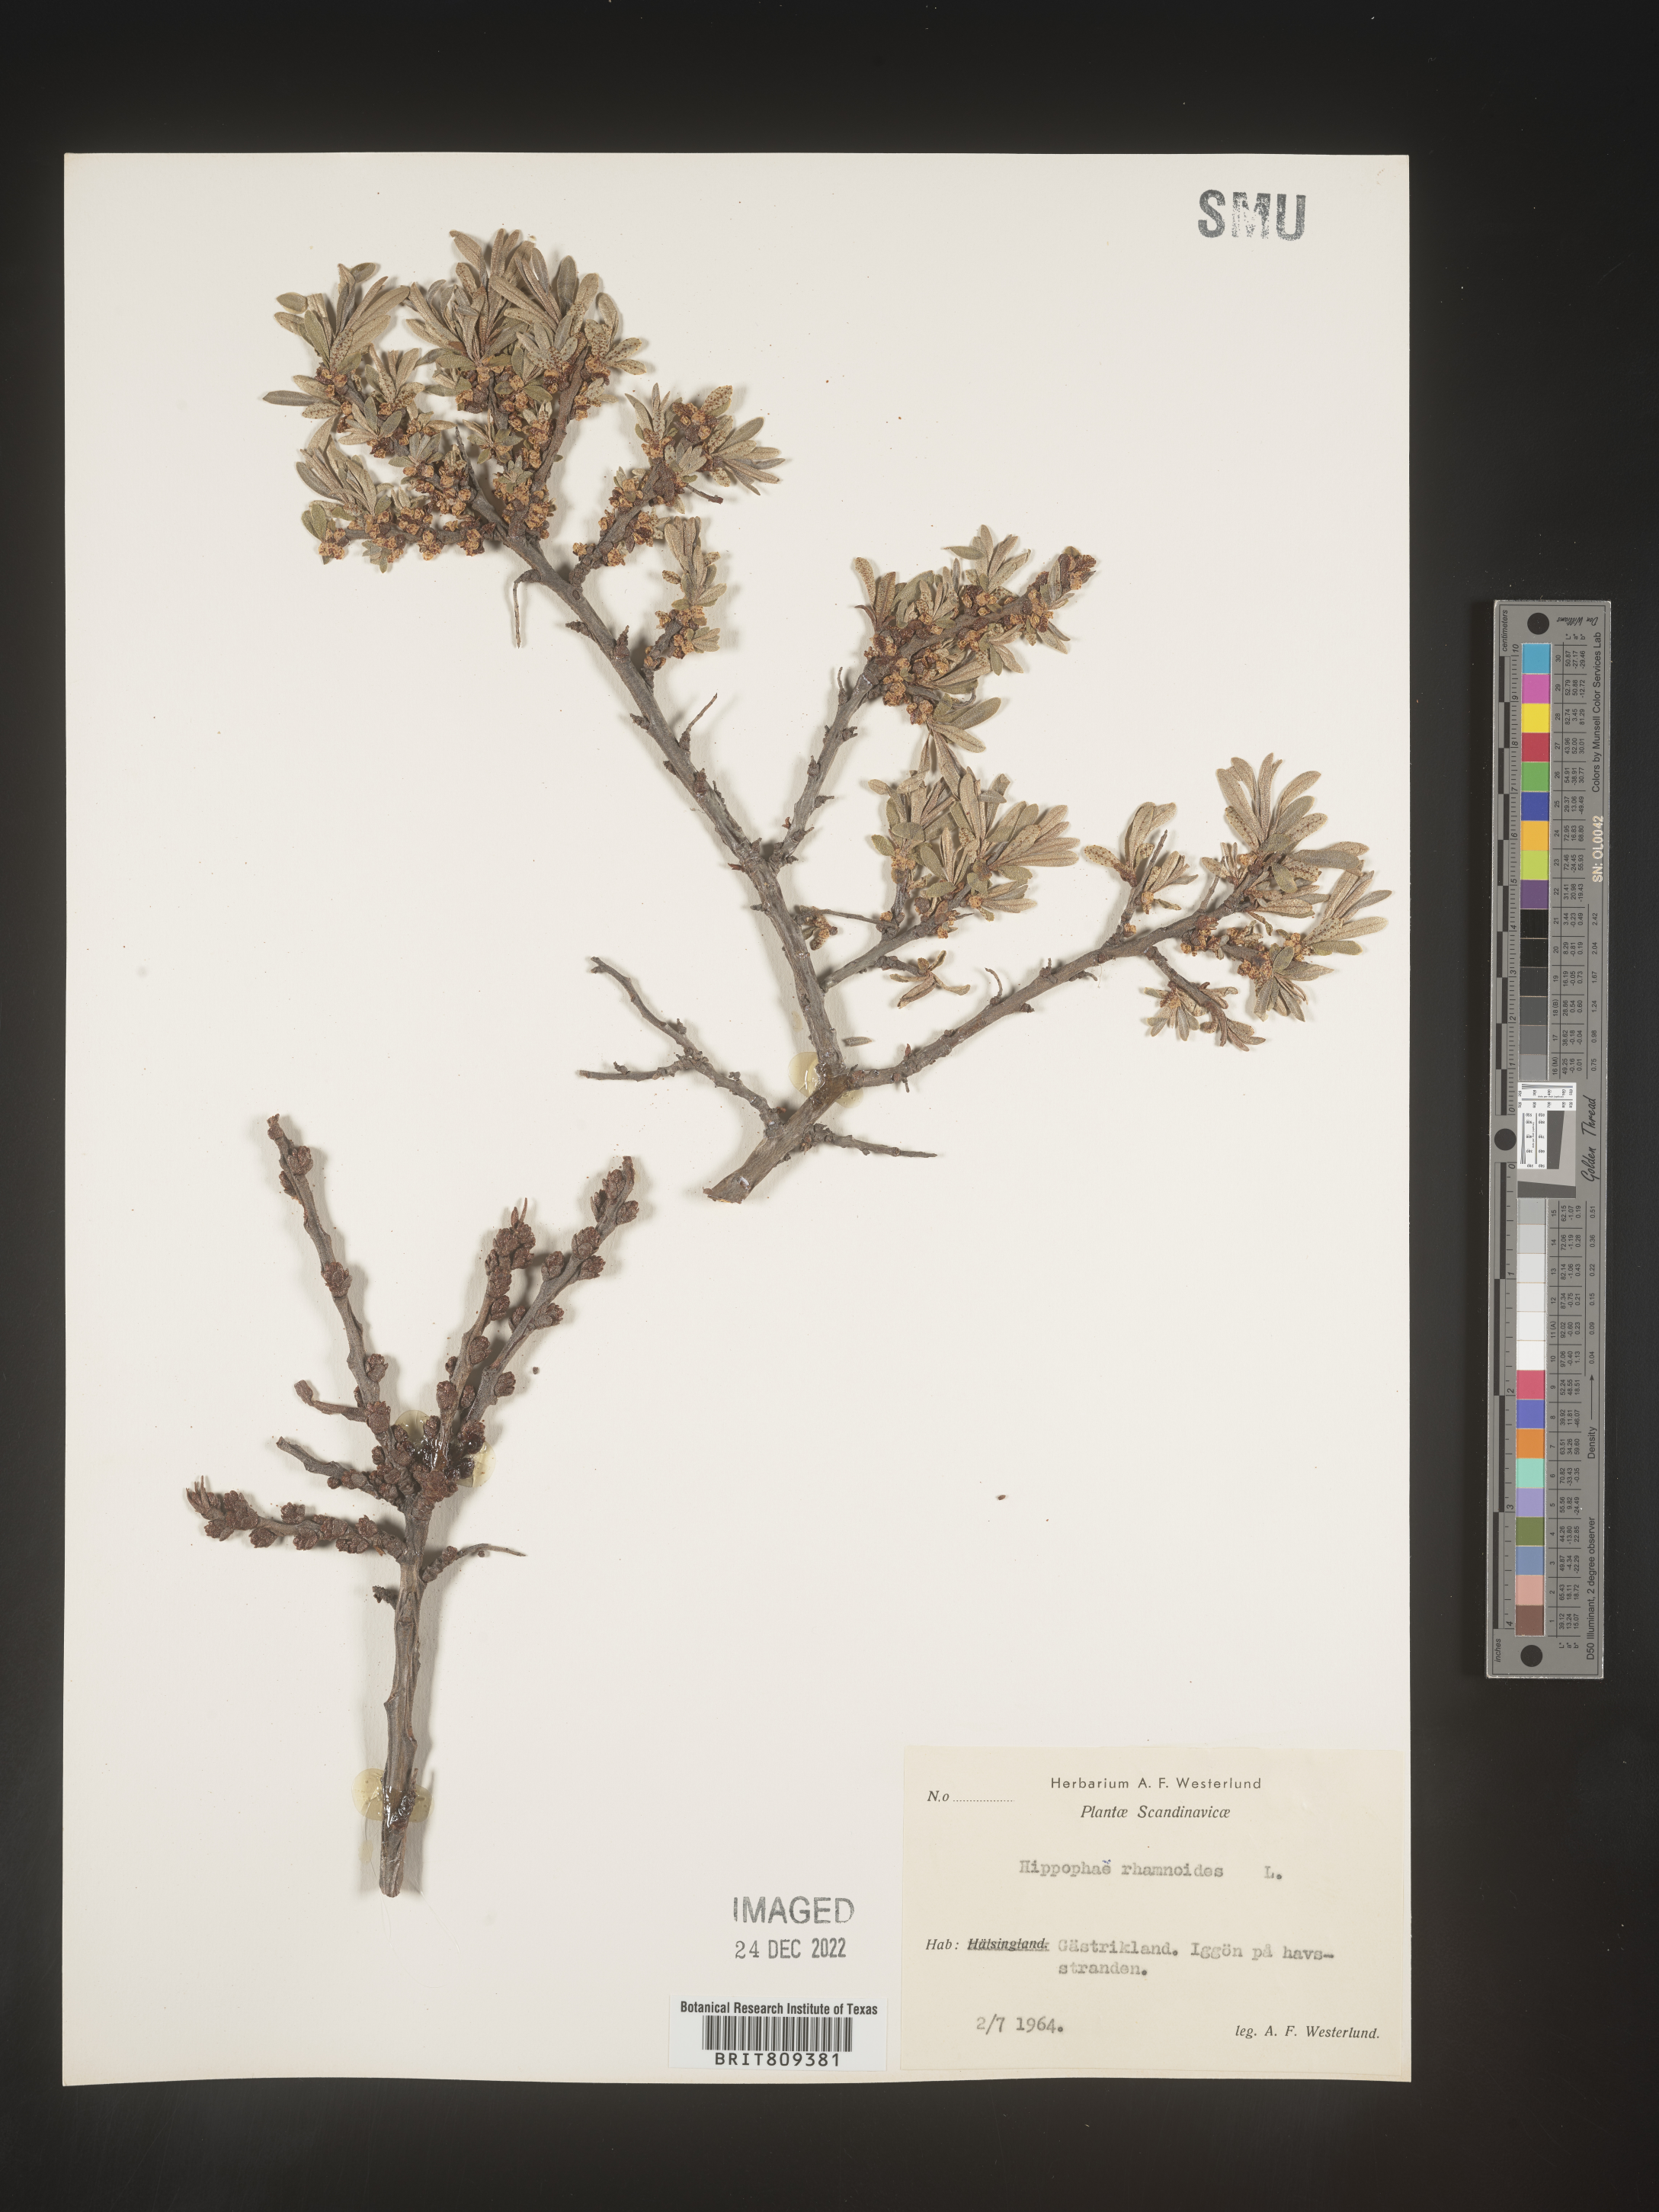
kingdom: Plantae
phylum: Tracheophyta
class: Magnoliopsida
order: Rosales
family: Elaeagnaceae
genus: Hippophae
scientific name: Hippophae
